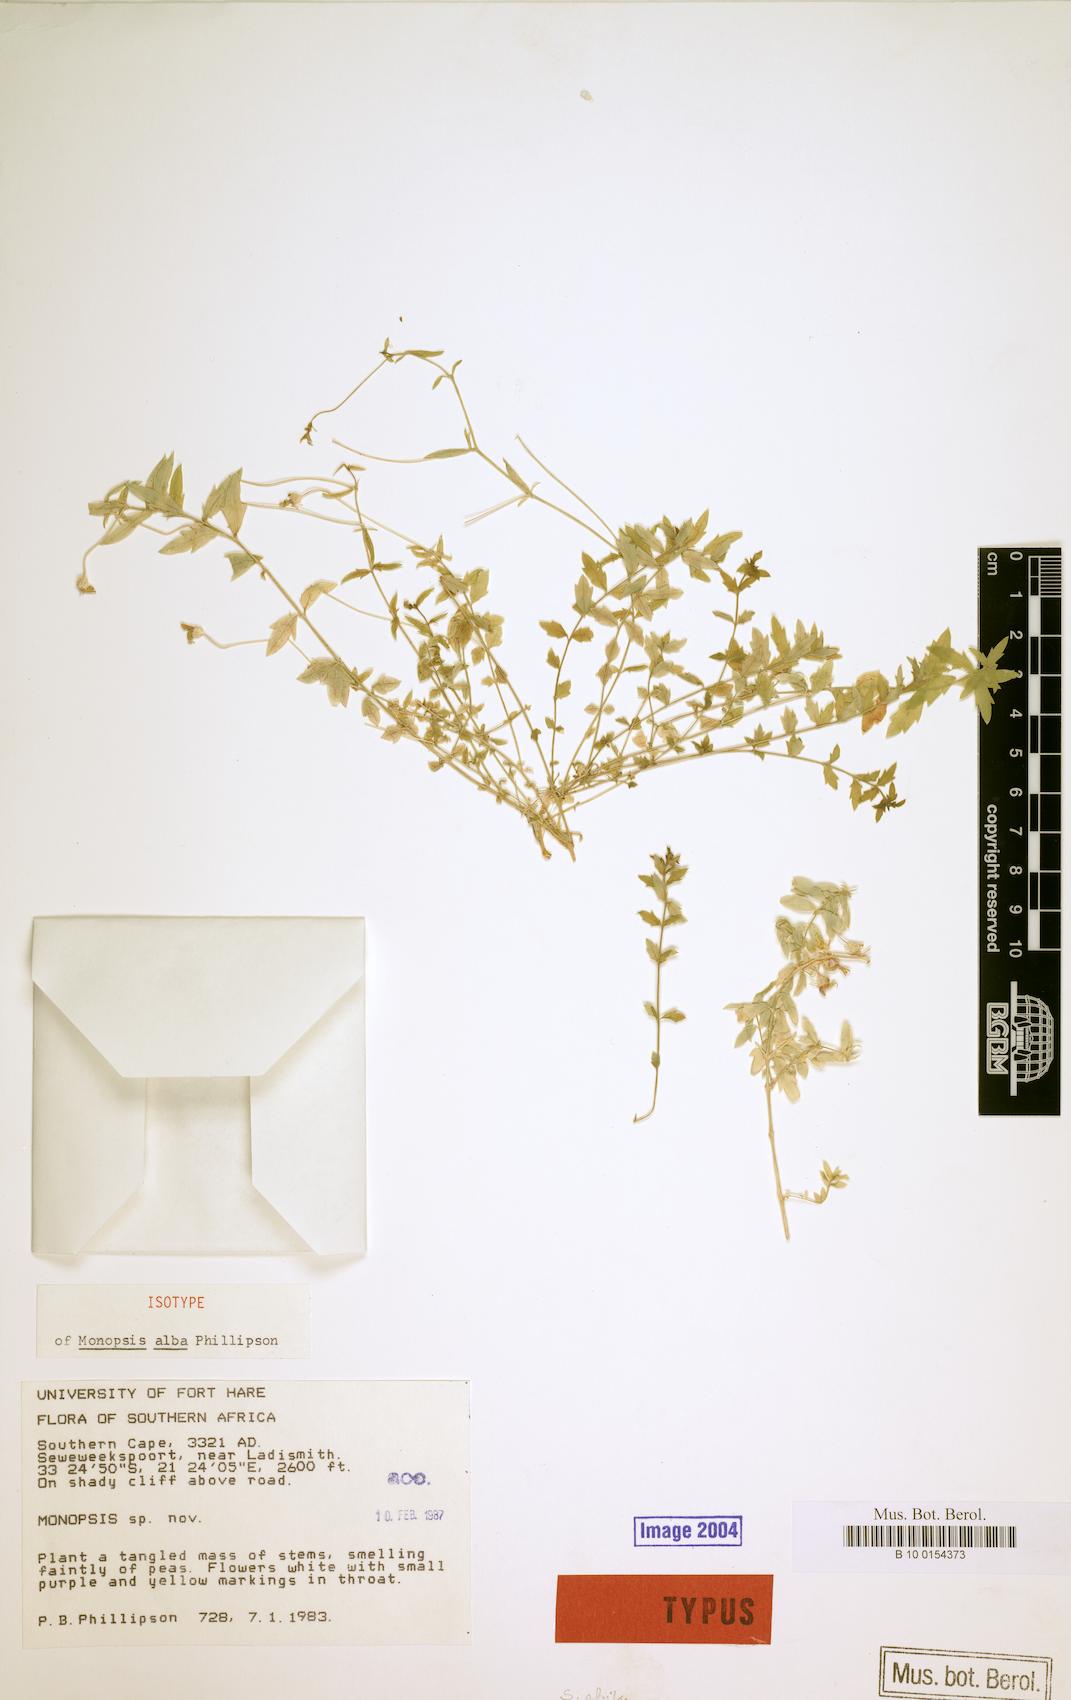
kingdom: Plantae
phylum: Tracheophyta
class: Magnoliopsida
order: Asterales
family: Campanulaceae
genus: Monopsis
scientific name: Monopsis alba
